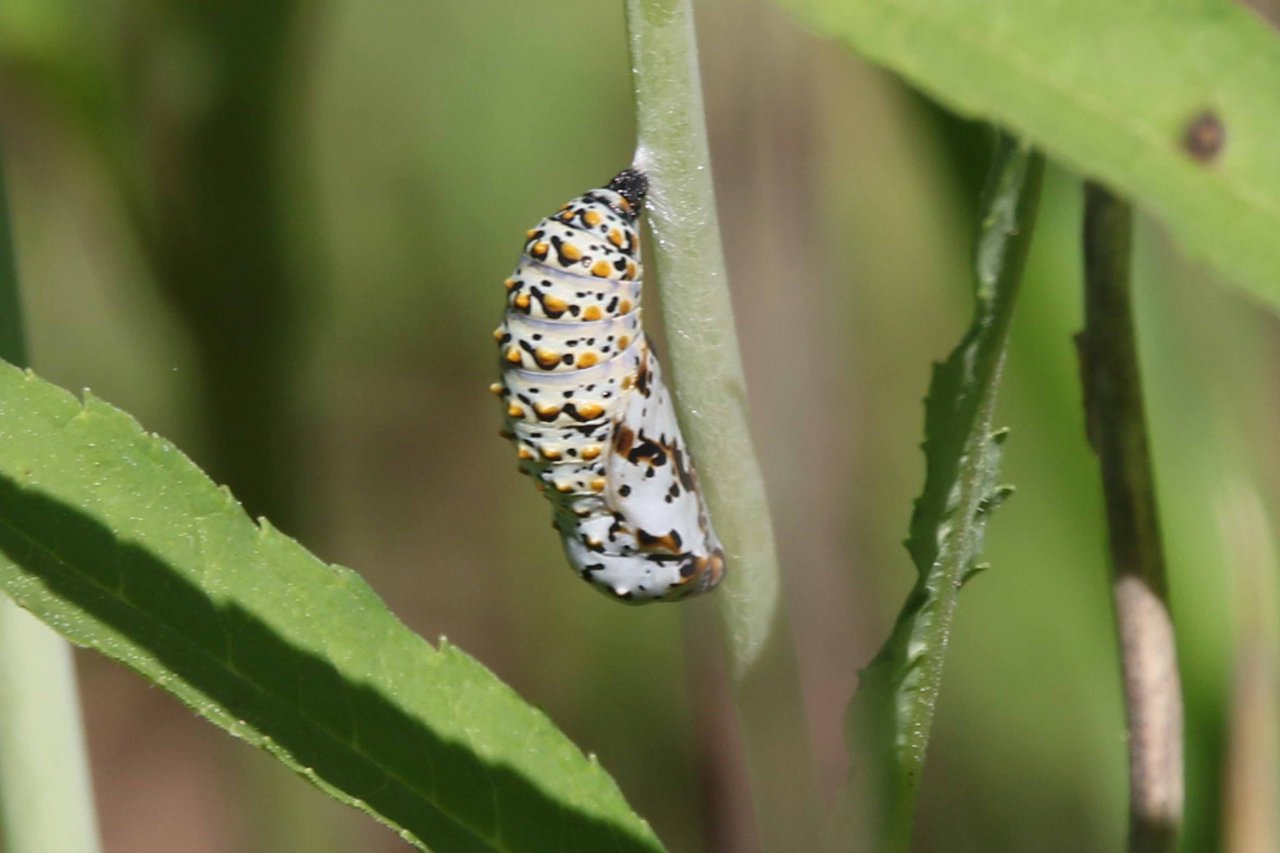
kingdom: Animalia
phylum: Arthropoda
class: Insecta
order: Lepidoptera
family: Nymphalidae
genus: Euphydryas
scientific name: Euphydryas phaeton
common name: Baltimore Checkerspot
